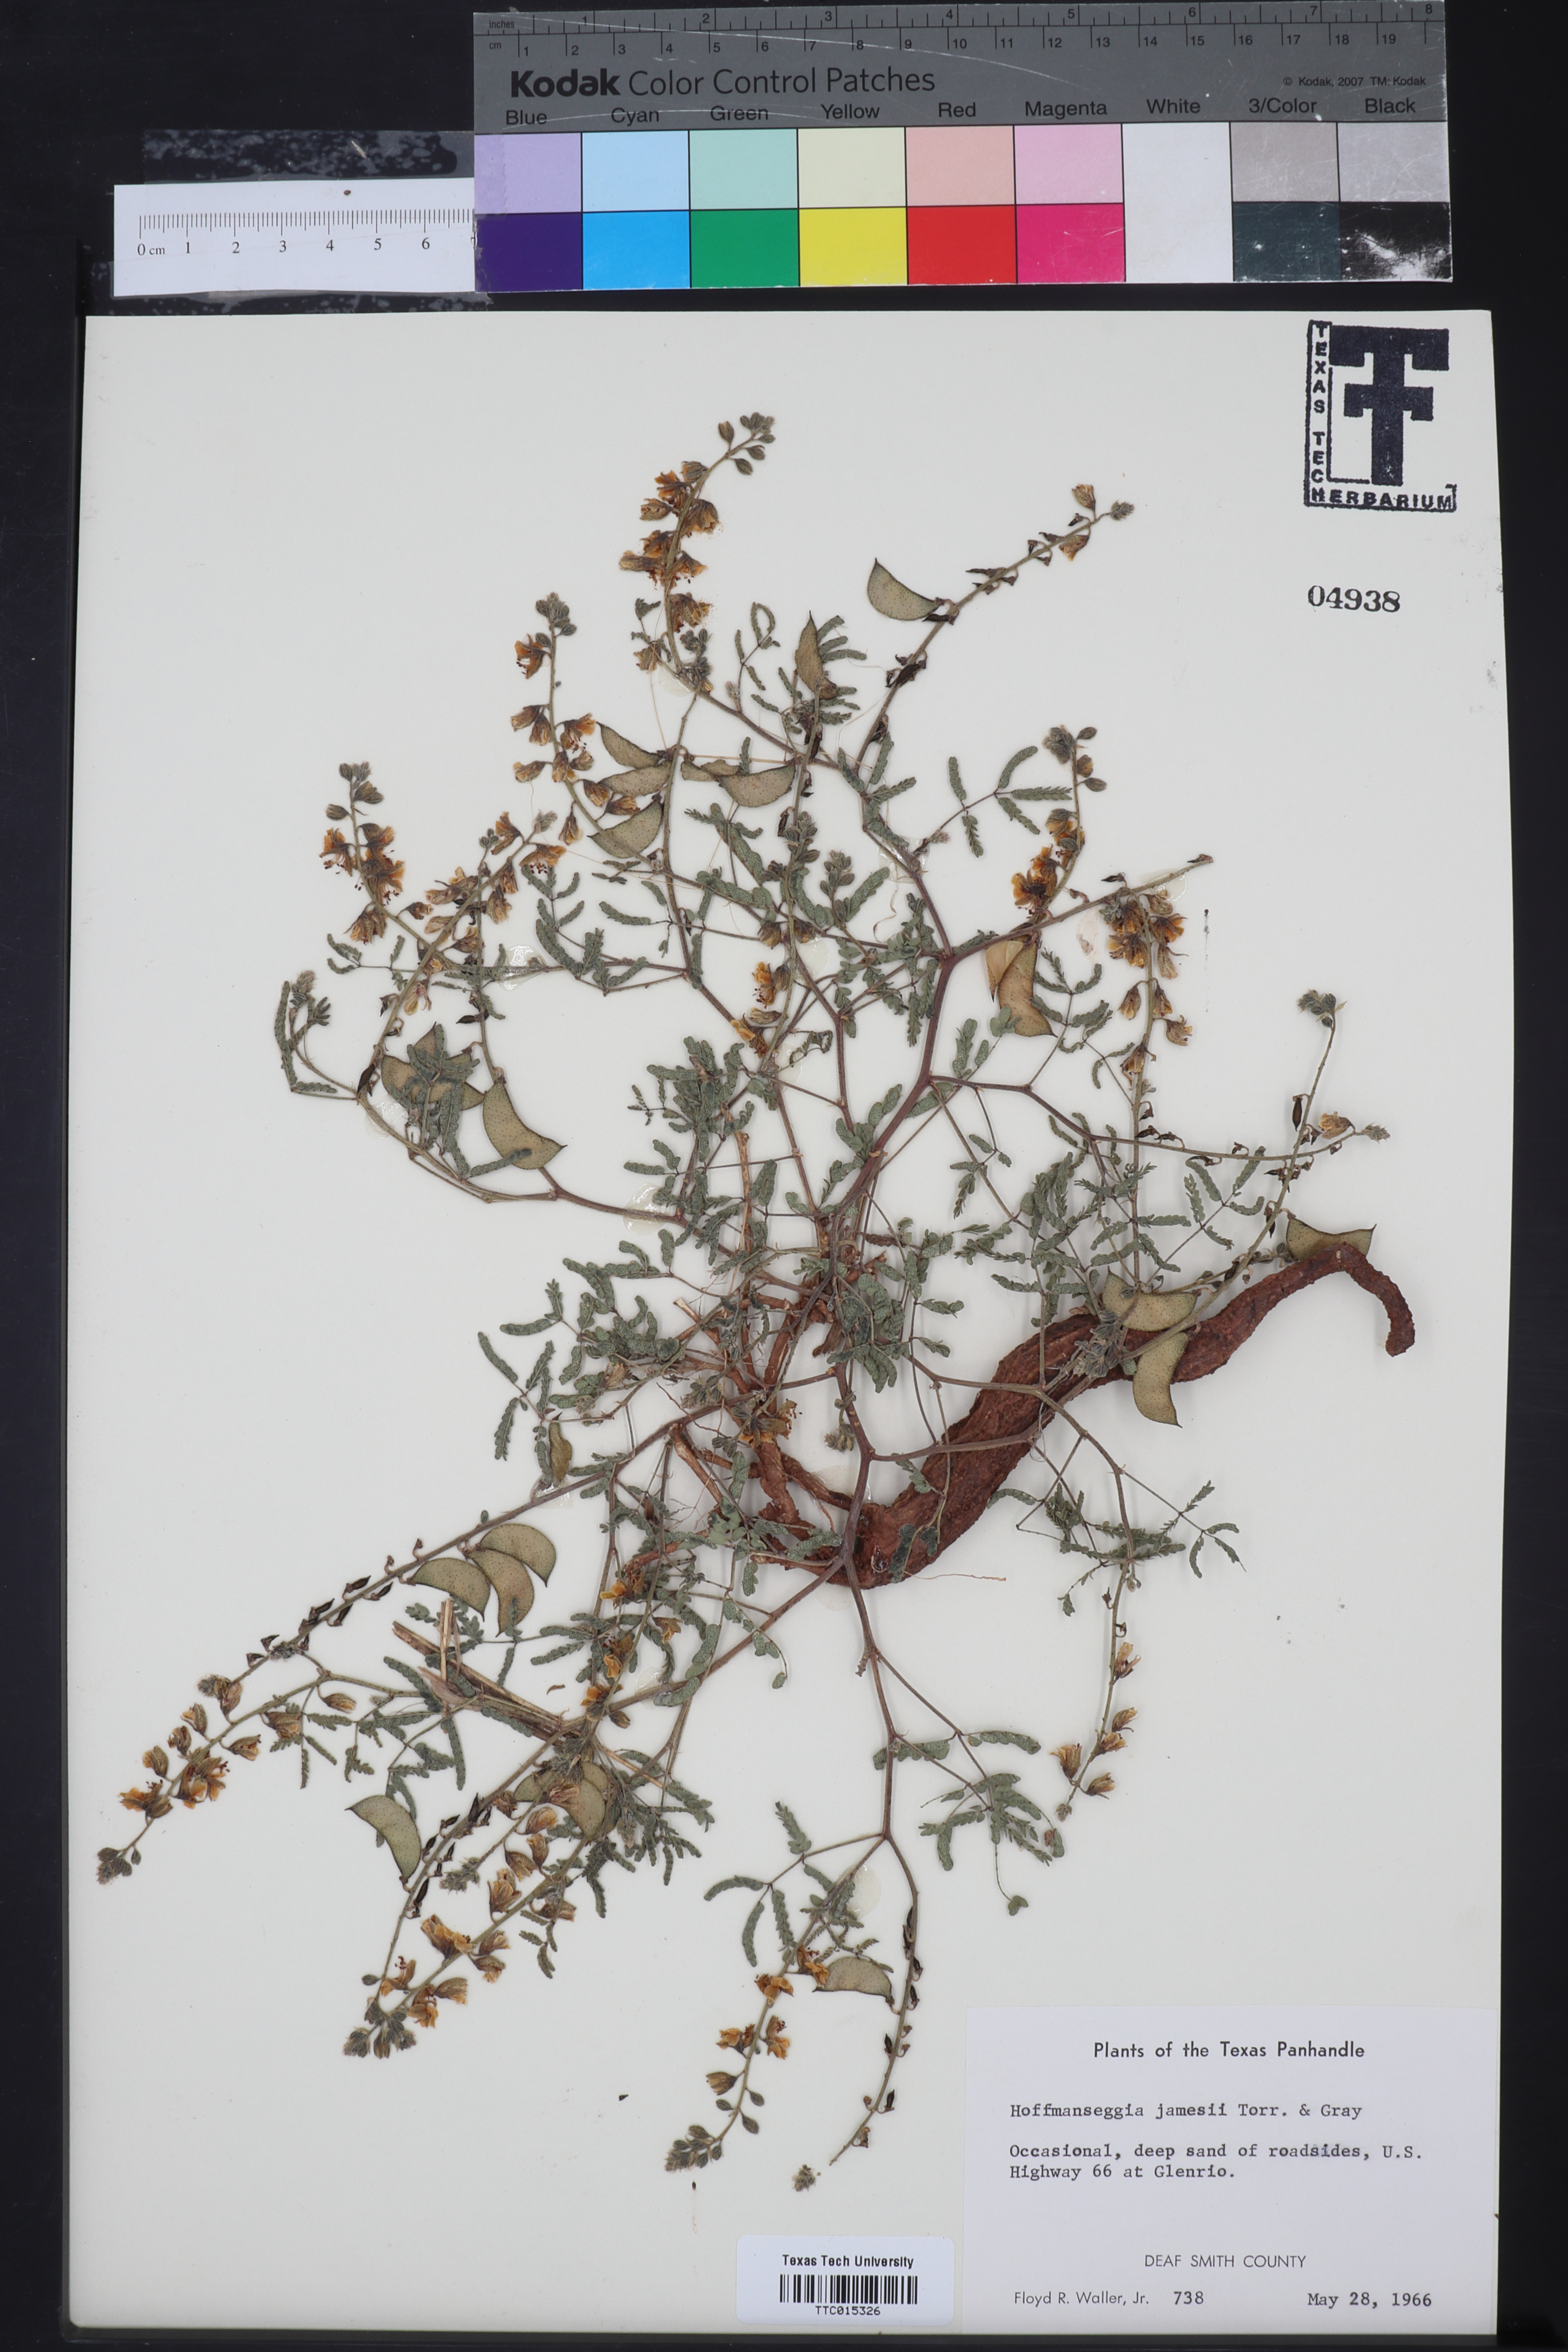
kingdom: Plantae
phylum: Tracheophyta
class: Magnoliopsida
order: Fabales
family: Fabaceae
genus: Pomaria
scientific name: Pomaria jamesii
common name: James' caesalpinia
